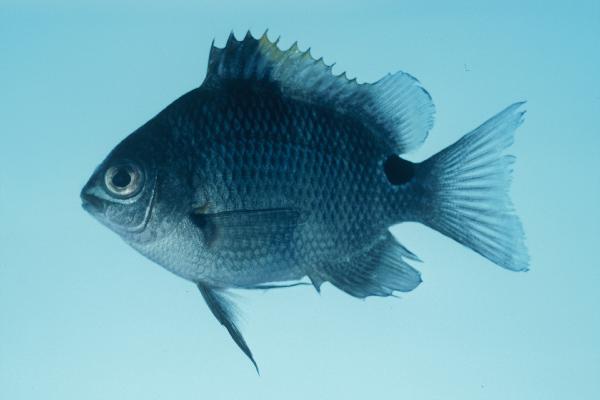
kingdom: Animalia
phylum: Chordata
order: Perciformes
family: Pomacentridae
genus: Abudefduf
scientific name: Abudefduf sordidus
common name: Blackspot sergeant
